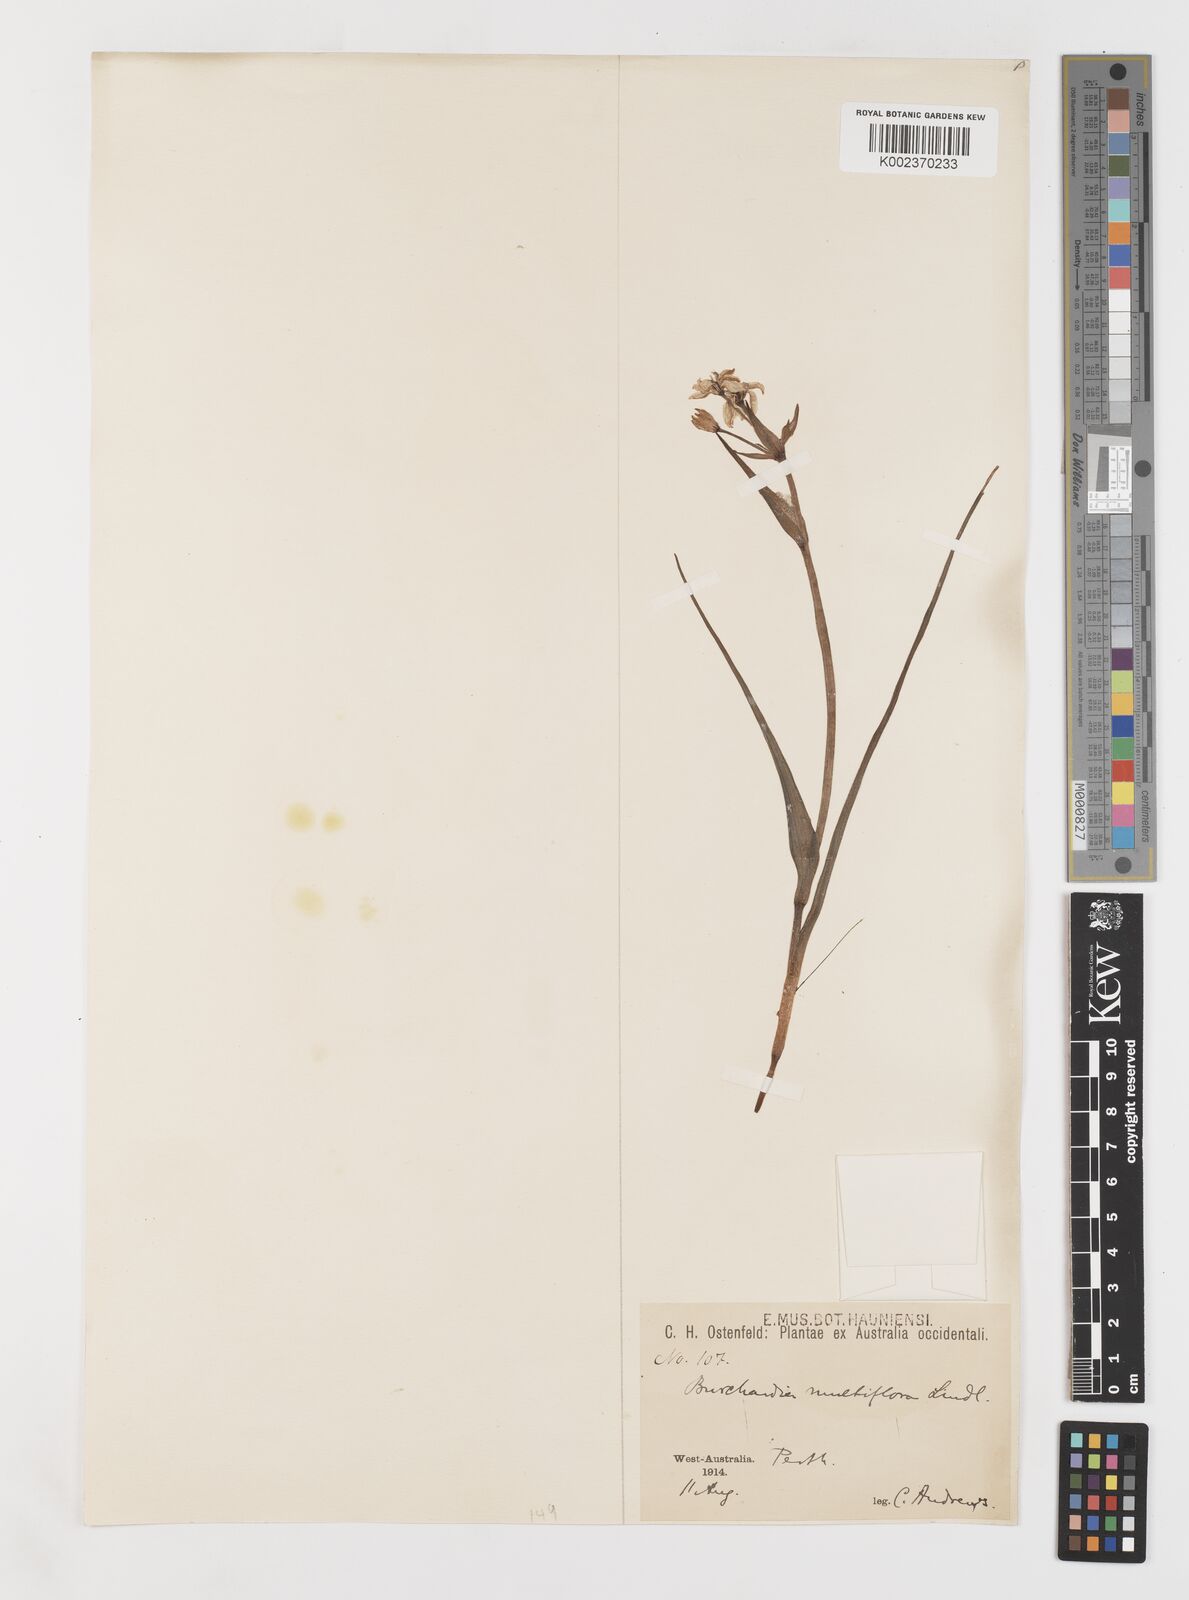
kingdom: Plantae
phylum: Tracheophyta
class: Liliopsida
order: Liliales
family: Colchicaceae
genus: Burchardia
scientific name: Burchardia multiflora
